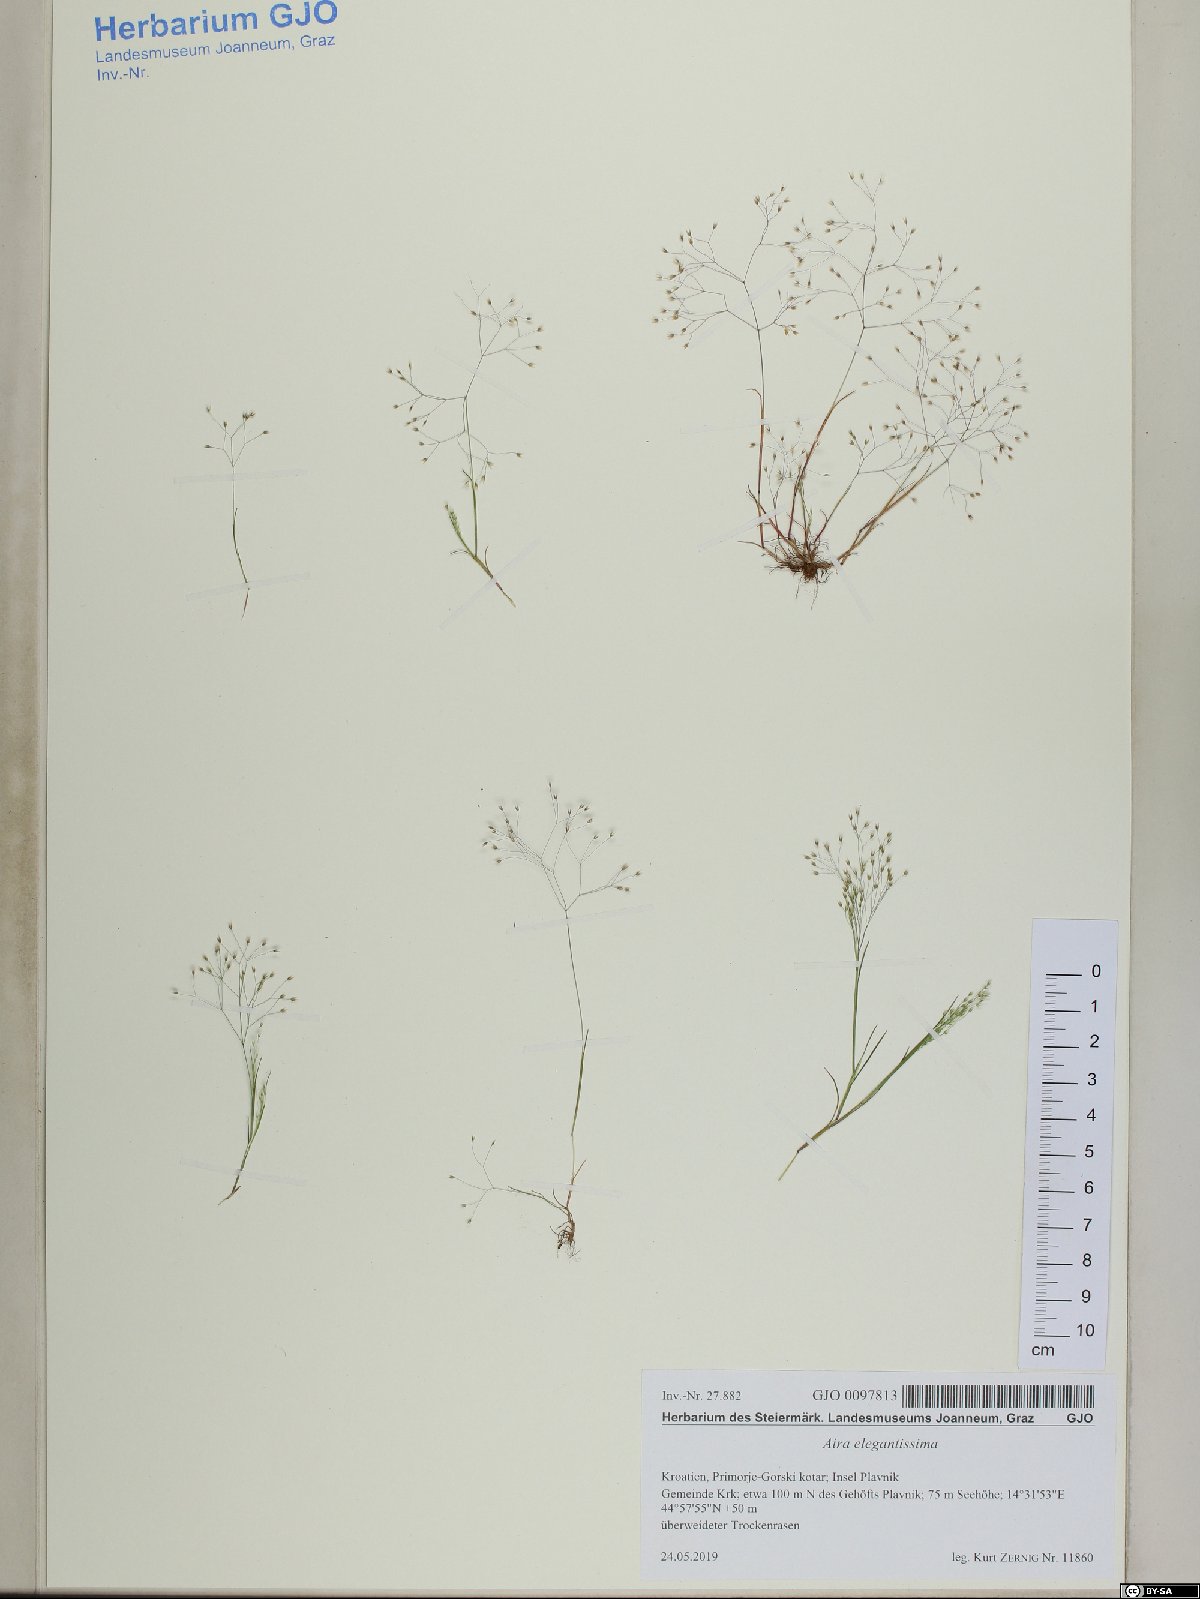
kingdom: Plantae
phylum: Tracheophyta
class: Liliopsida
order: Poales
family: Poaceae
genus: Aira
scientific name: Aira elegans
